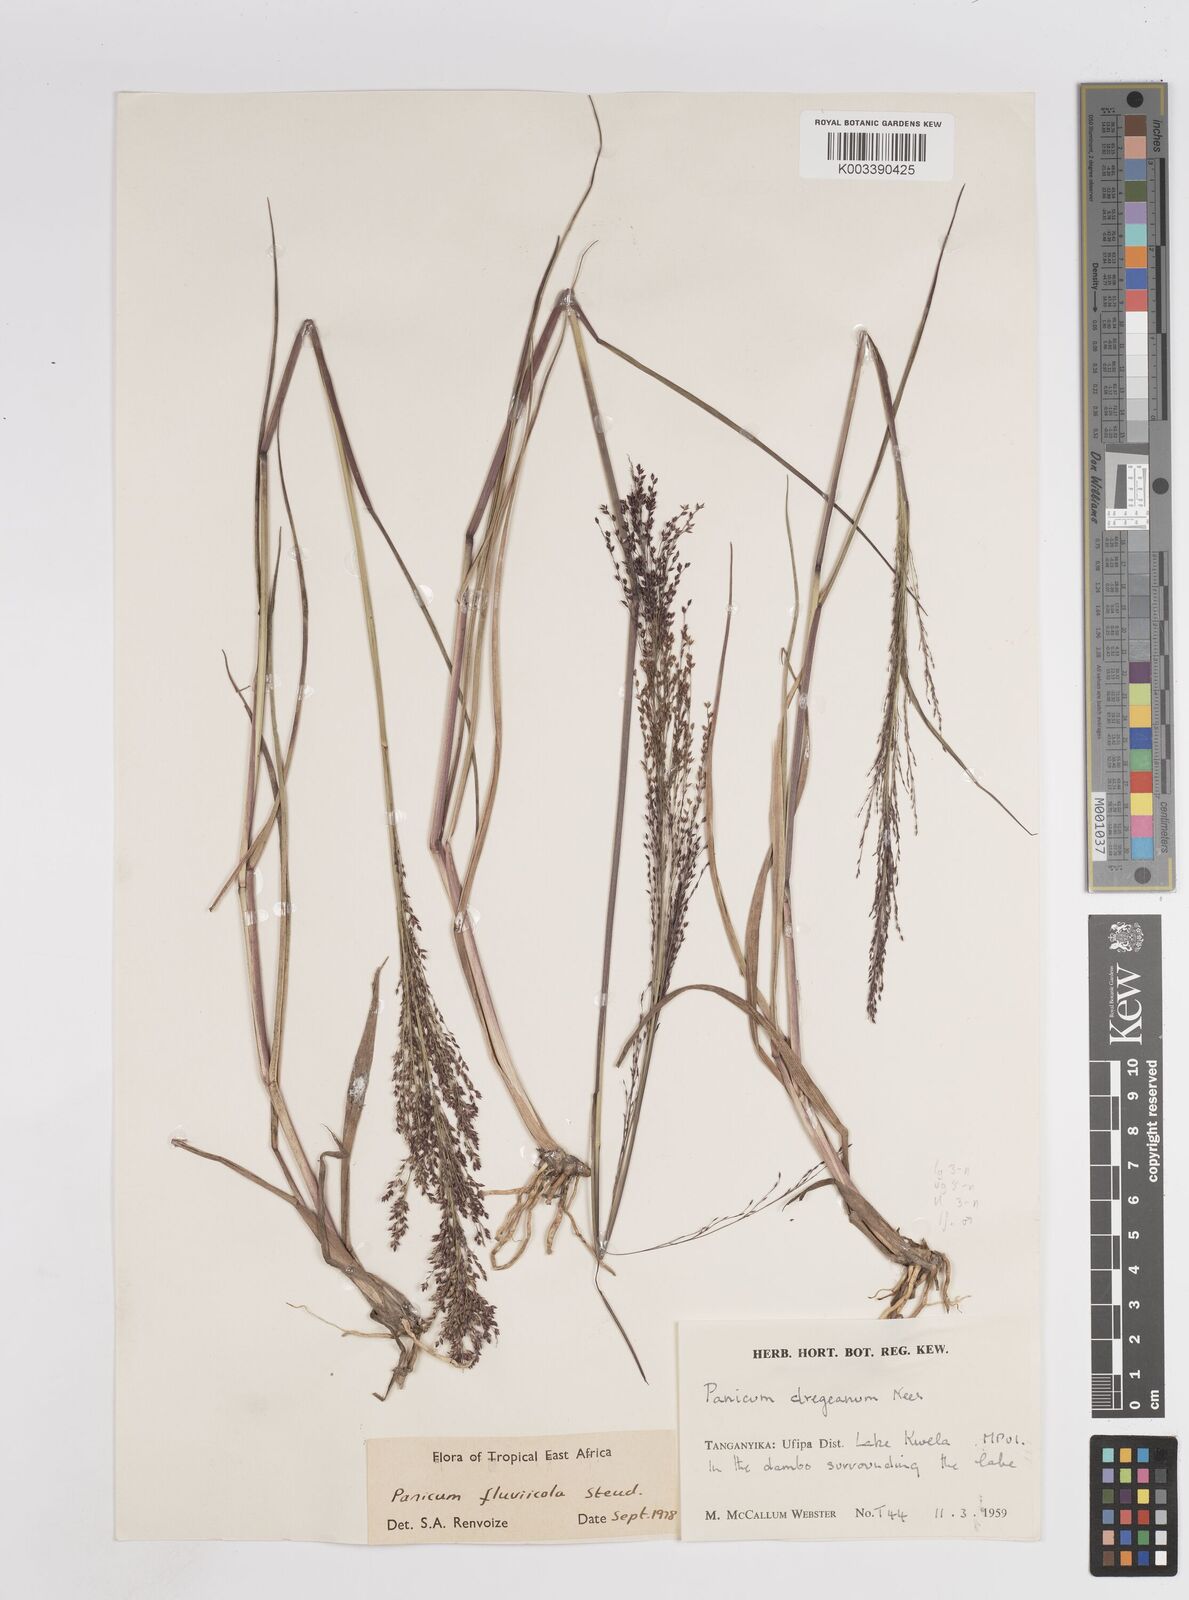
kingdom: Plantae
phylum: Tracheophyta
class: Liliopsida
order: Poales
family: Poaceae
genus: Panicum
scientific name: Panicum fluviicola
